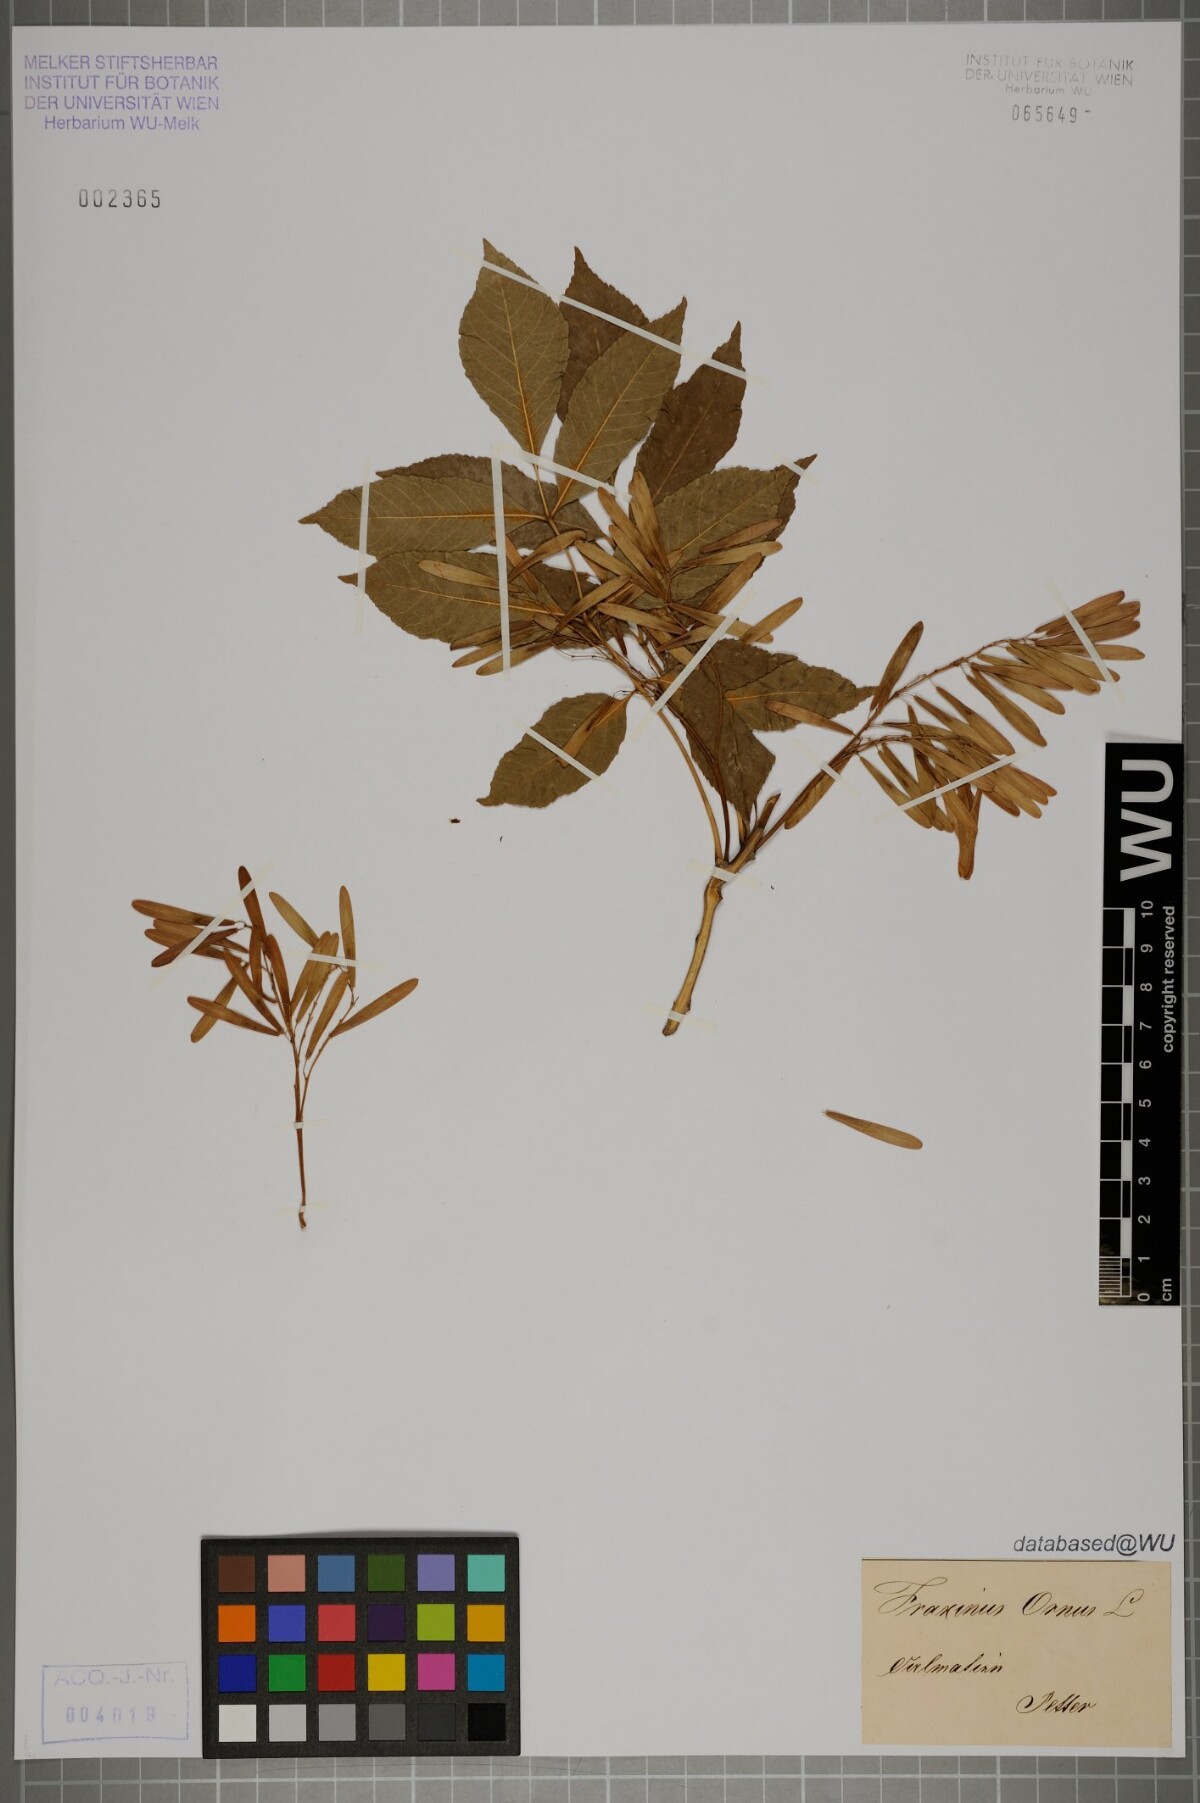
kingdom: Plantae
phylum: Tracheophyta
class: Magnoliopsida
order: Lamiales
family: Oleaceae
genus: Fraxinus
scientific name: Fraxinus ornus
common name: Manna ash
